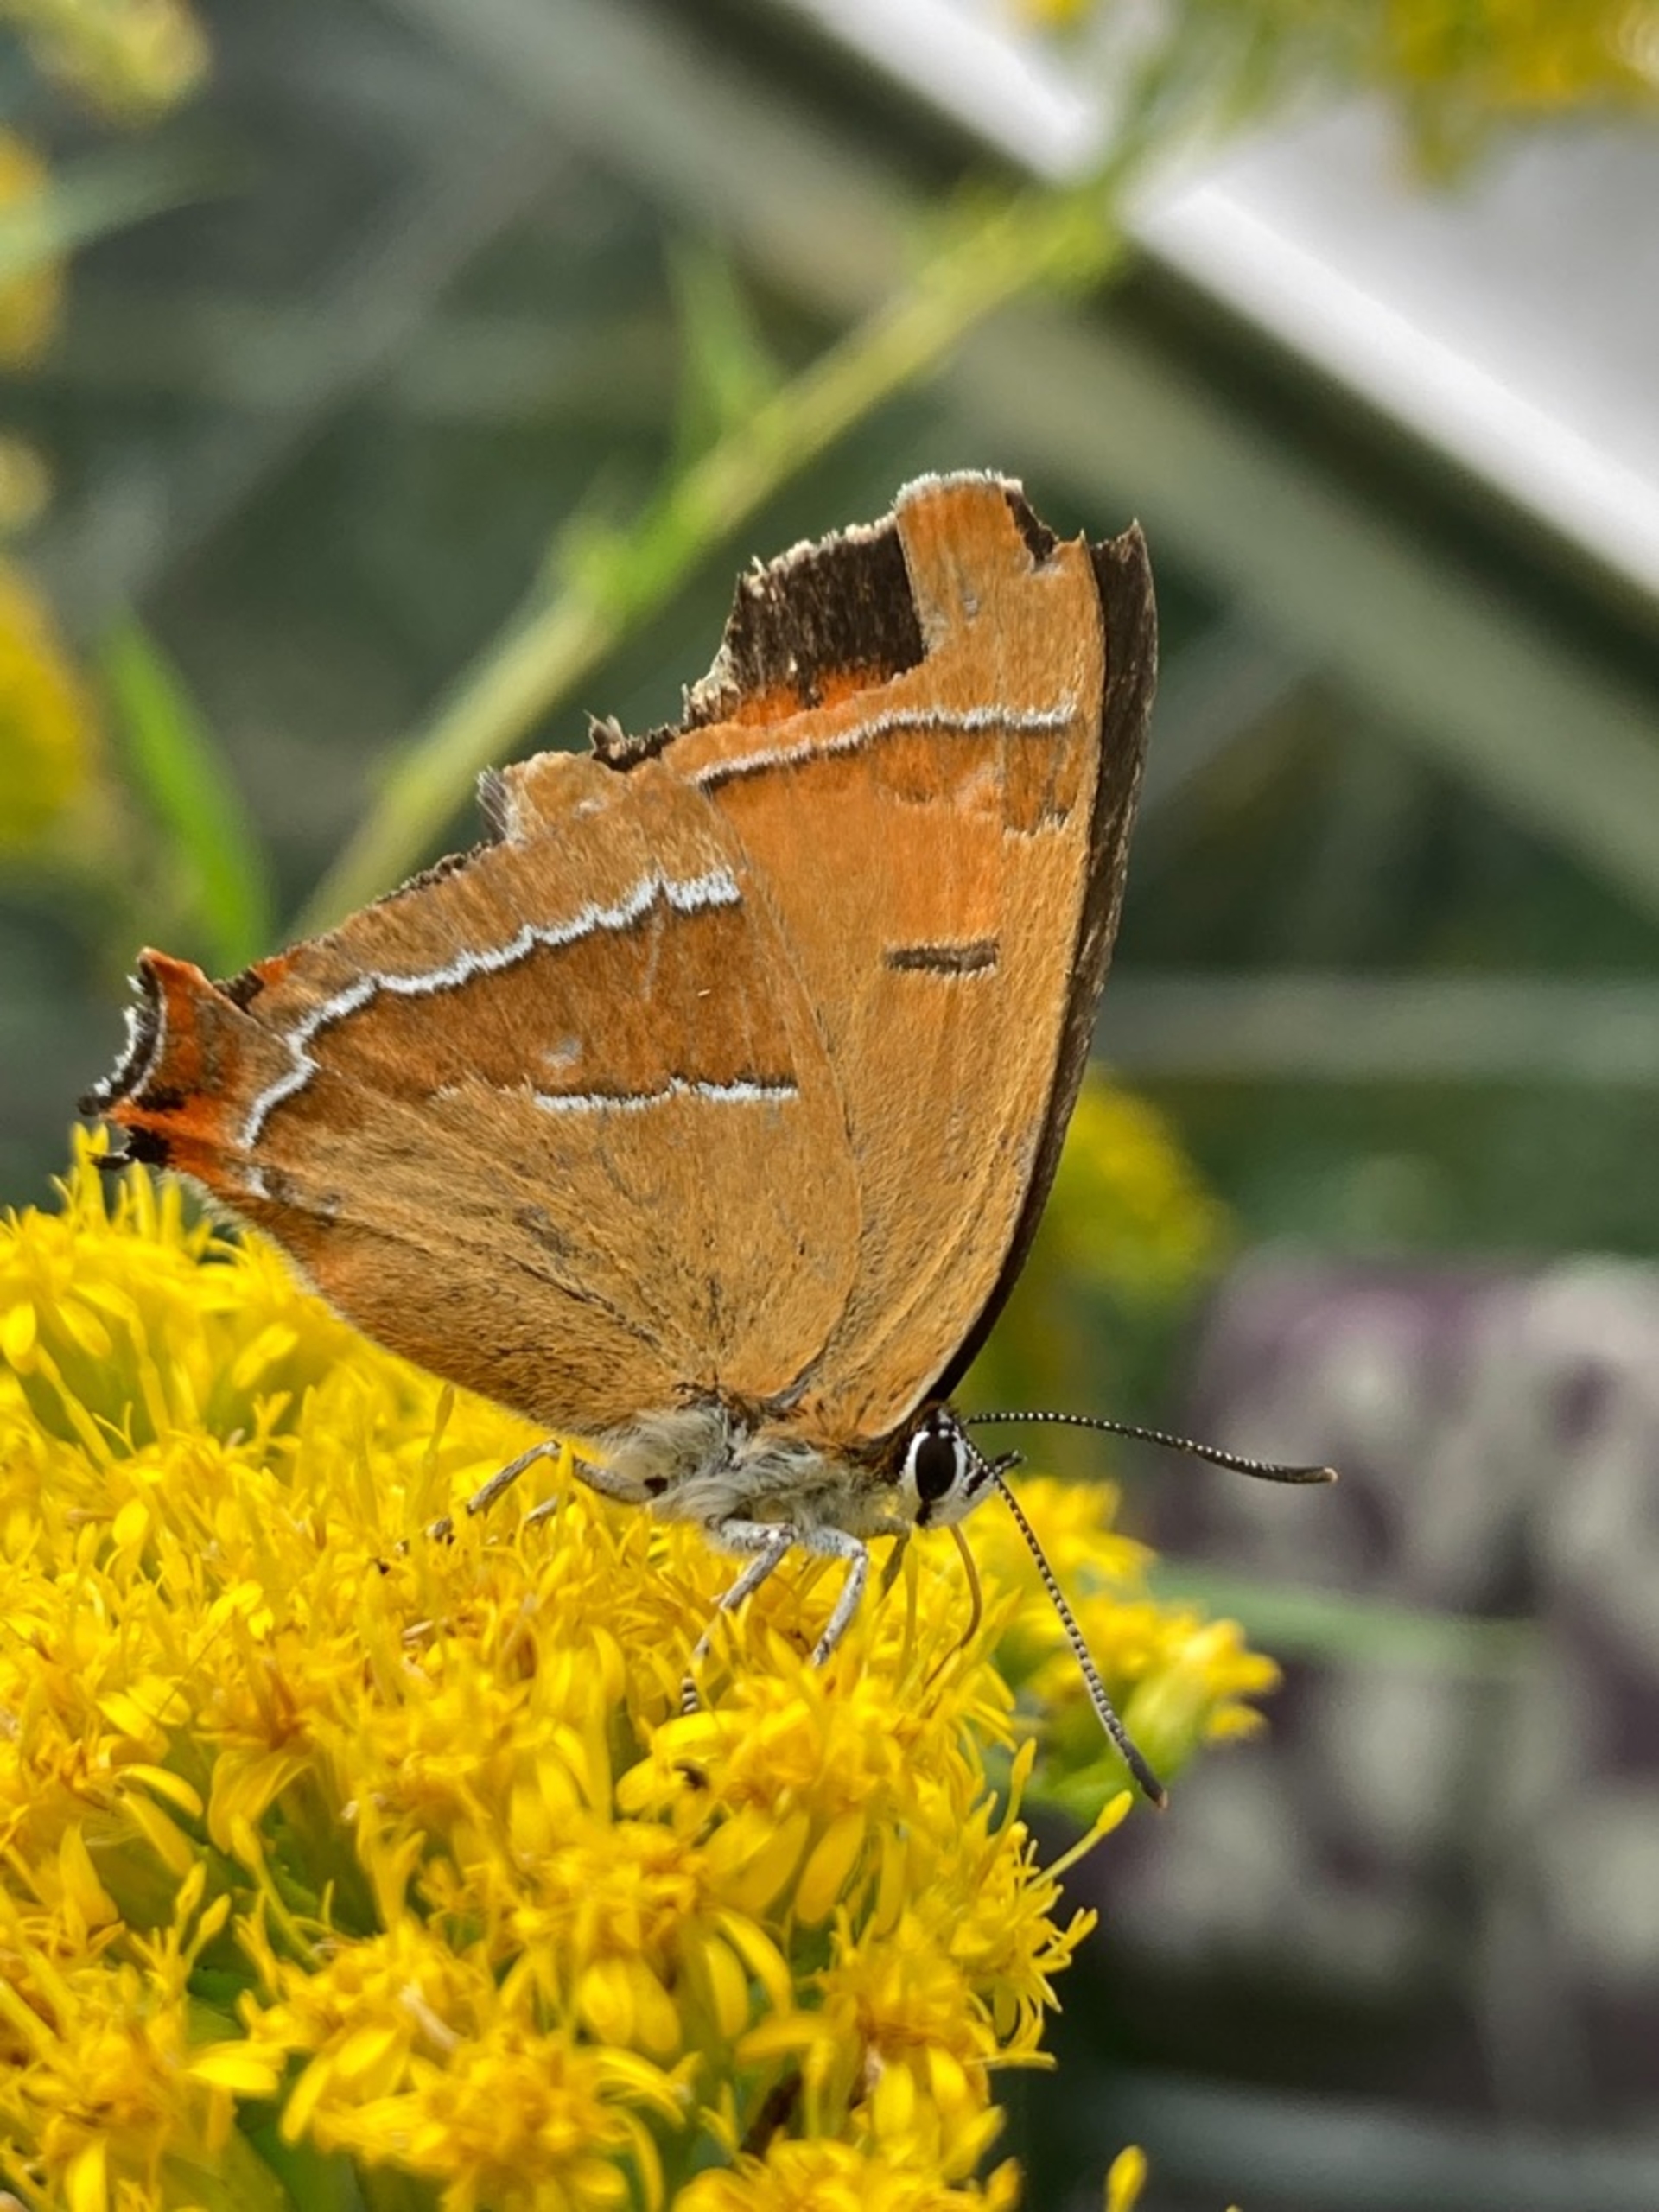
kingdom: Animalia
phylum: Arthropoda
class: Insecta
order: Lepidoptera
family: Lycaenidae
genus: Thecla
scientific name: Thecla betulae
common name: Guldhale
